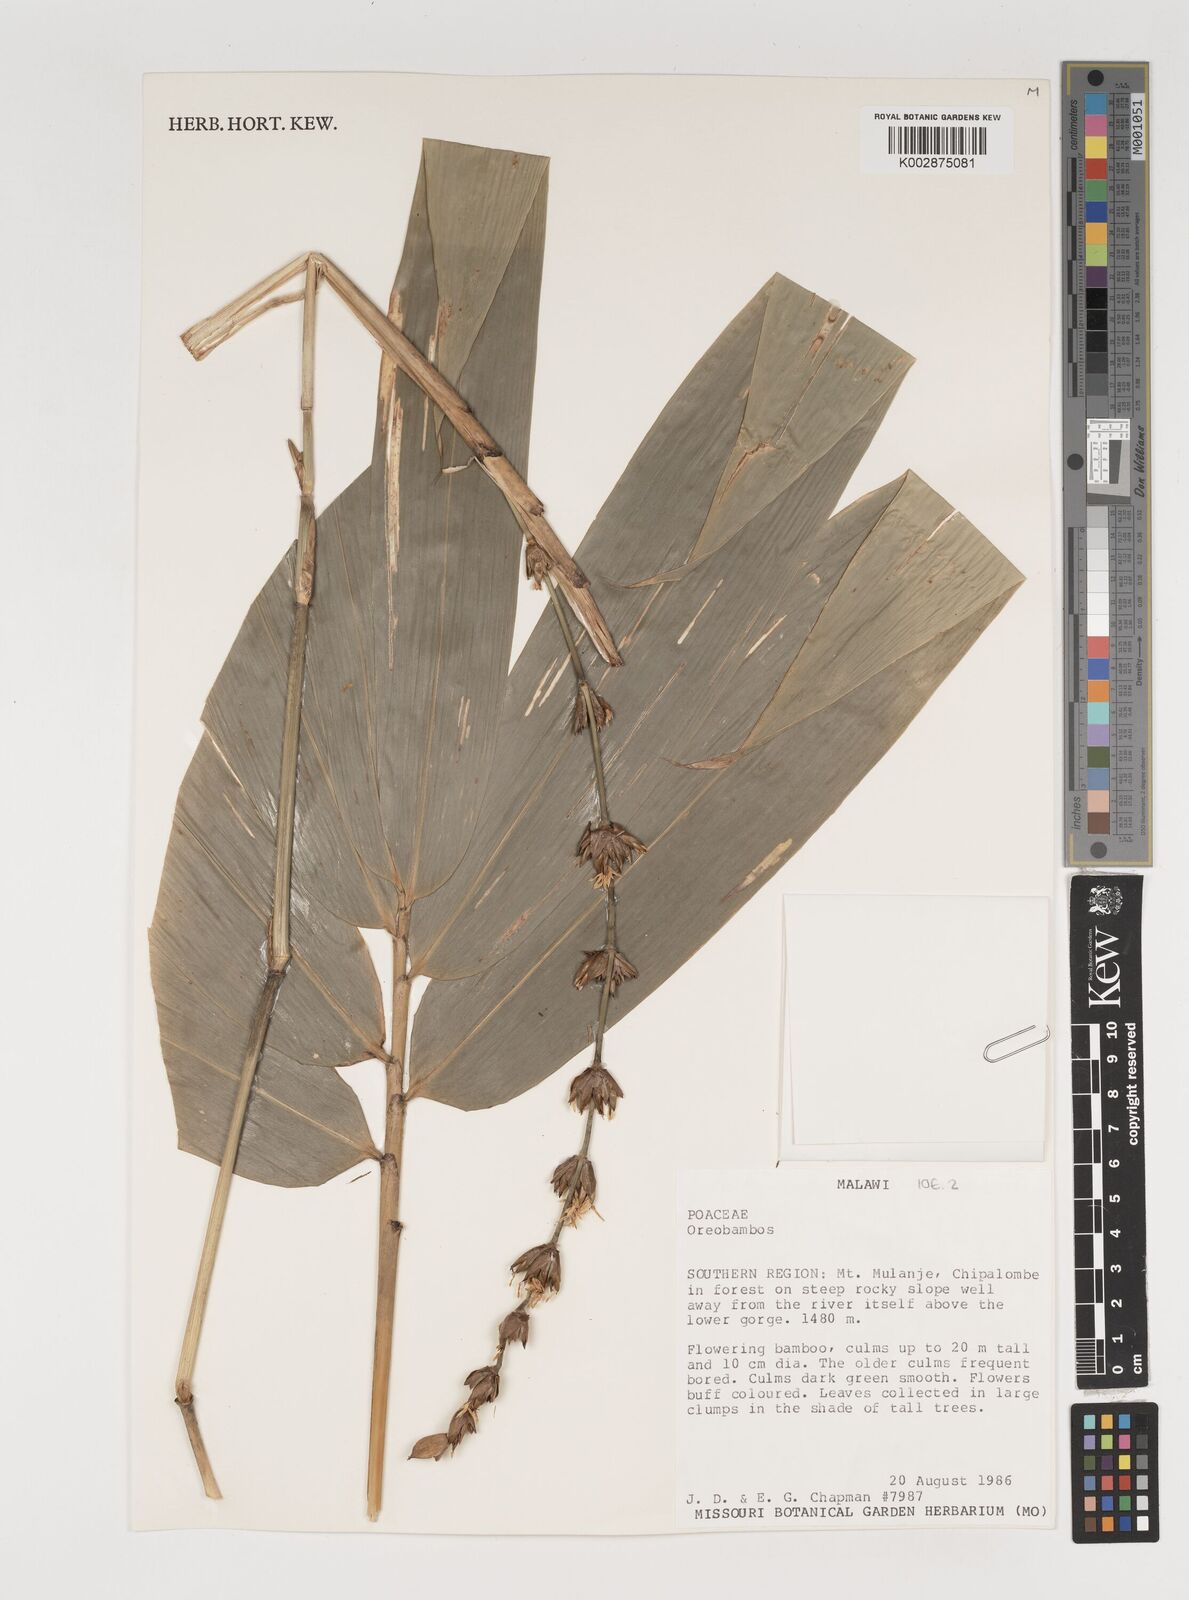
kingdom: Plantae
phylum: Tracheophyta
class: Liliopsida
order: Poales
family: Poaceae
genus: Oreobambos
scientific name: Oreobambos buchwaldii
